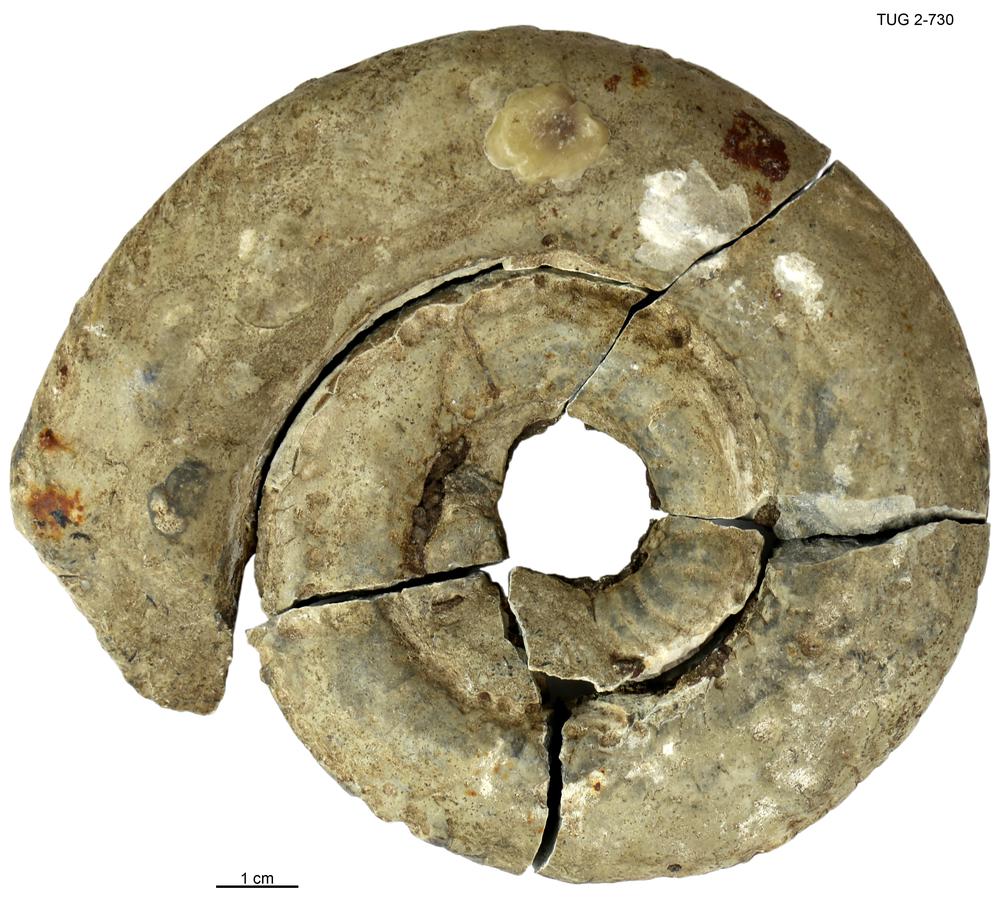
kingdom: Animalia
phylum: Mollusca
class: Cephalopoda
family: Trocholitidae
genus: Discoceras
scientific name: Discoceras antiquissimus
